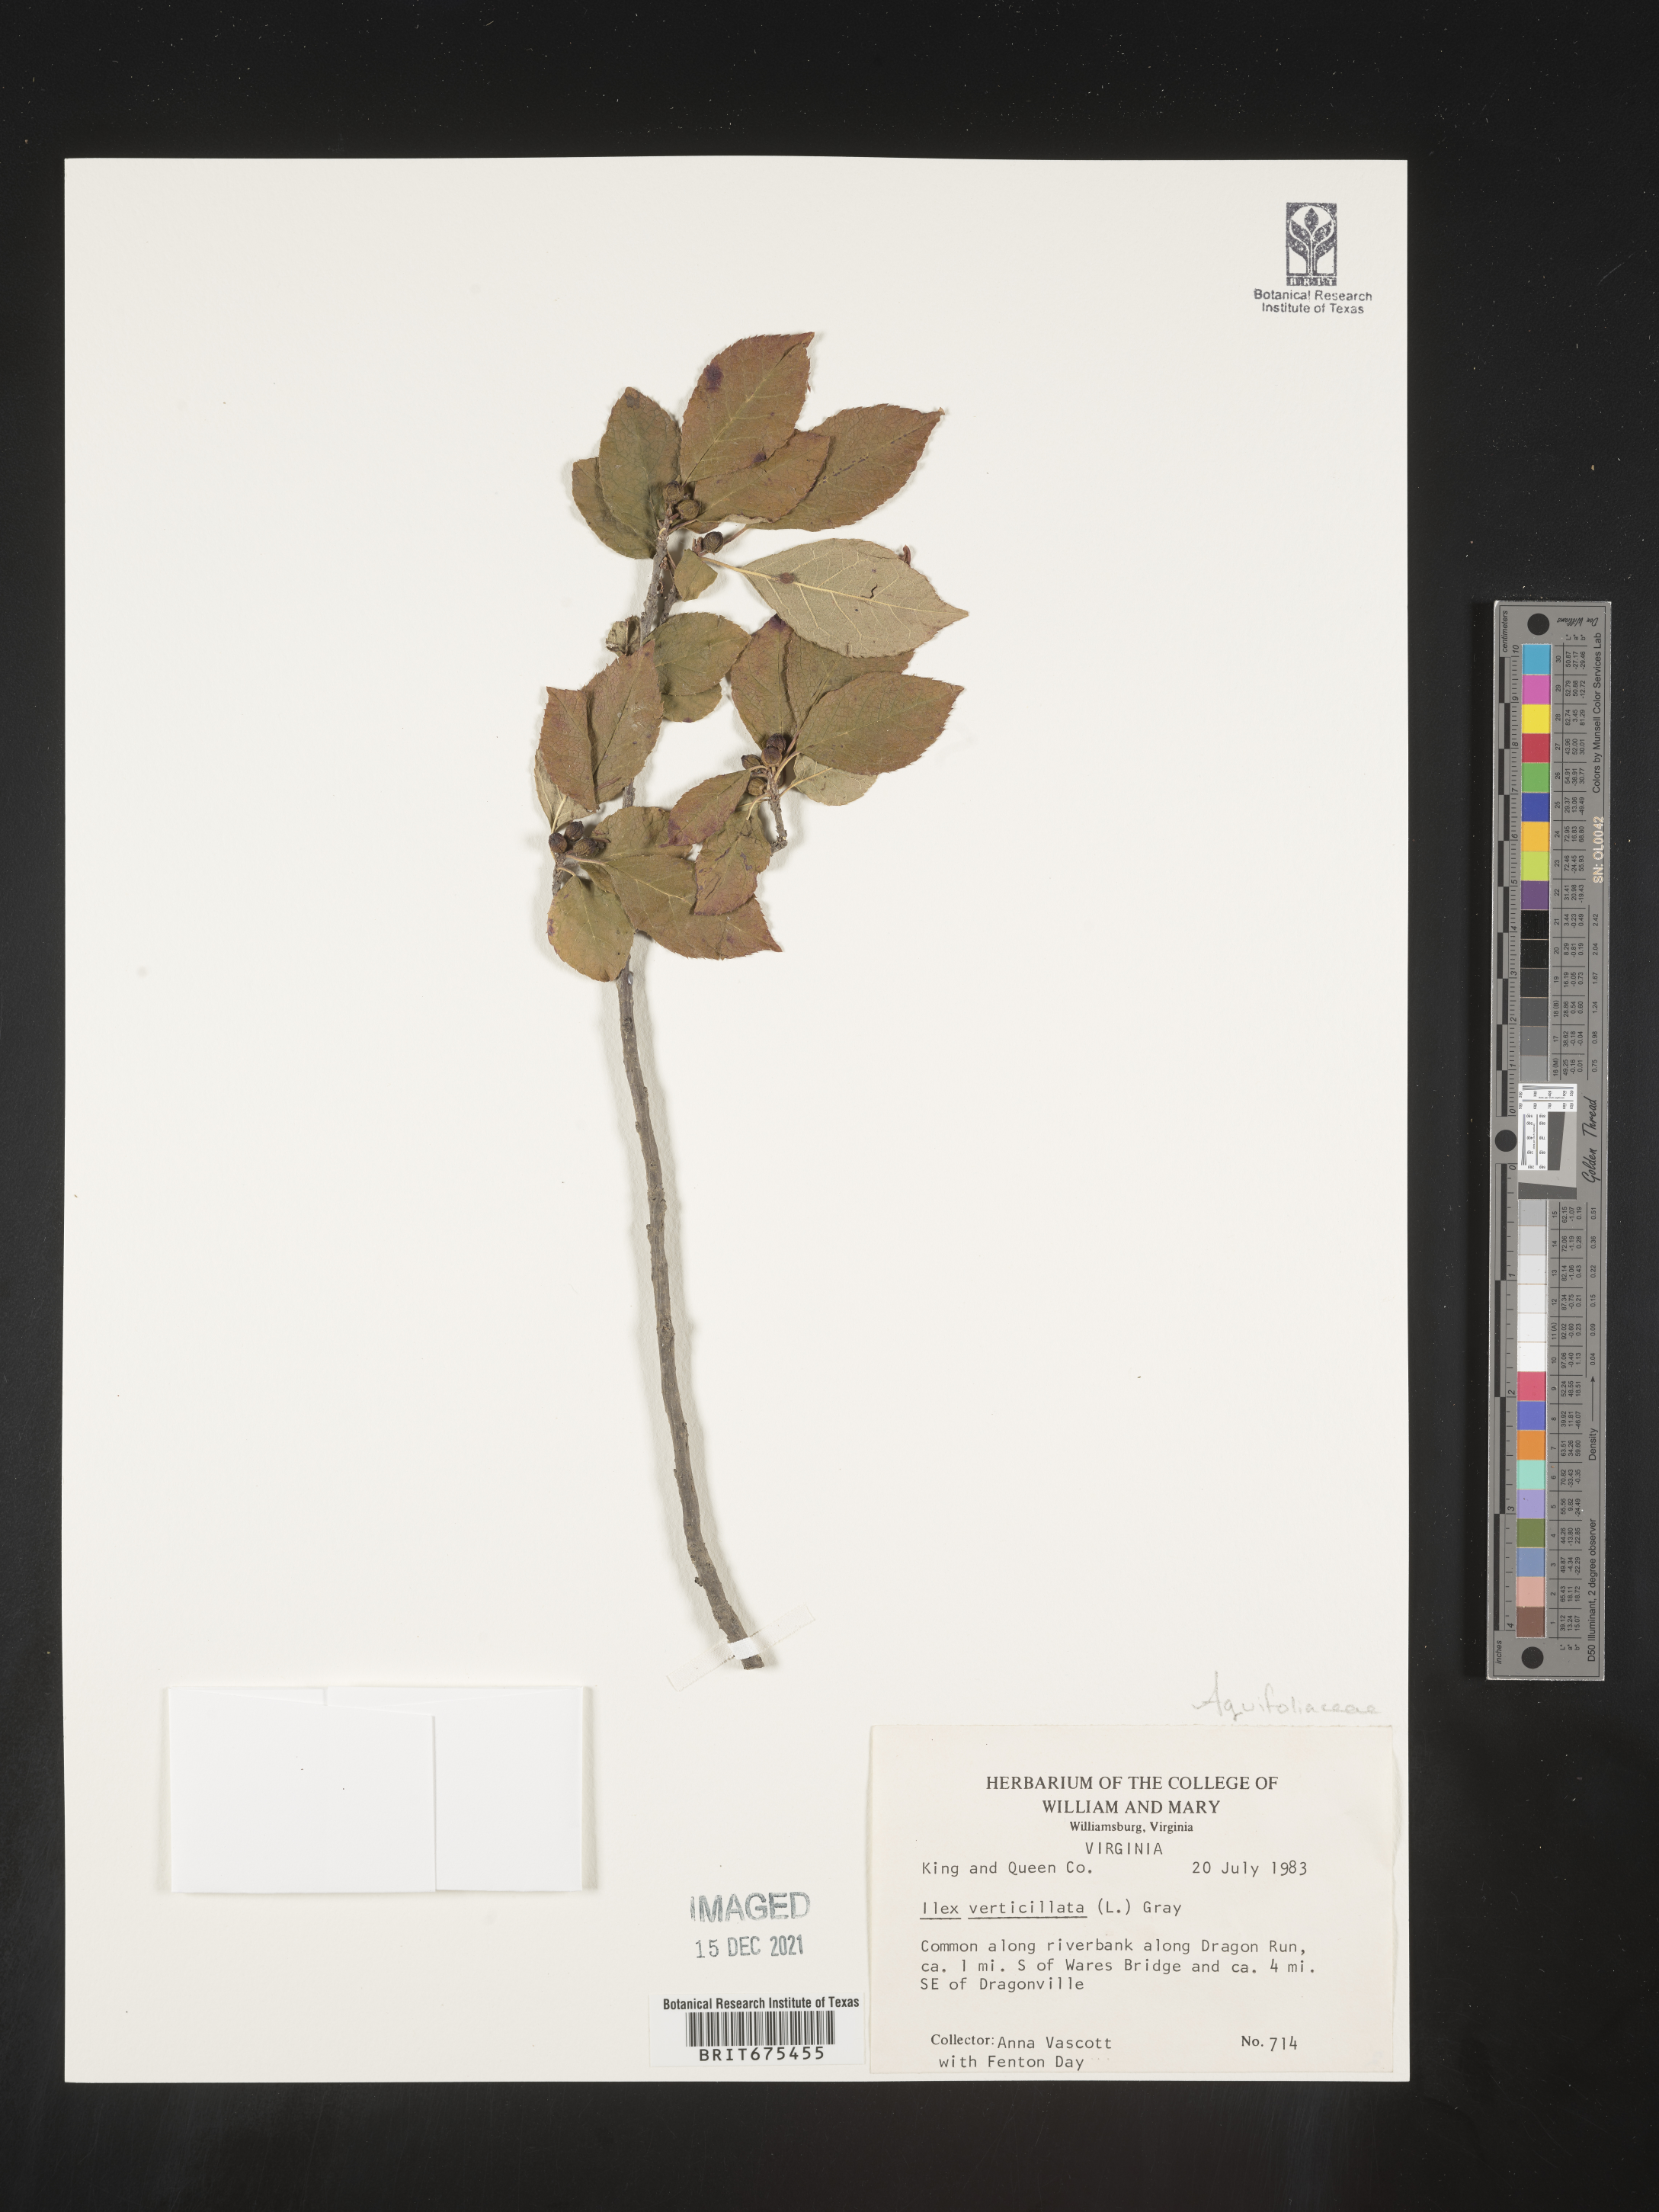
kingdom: Plantae
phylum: Tracheophyta
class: Magnoliopsida
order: Aquifoliales
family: Aquifoliaceae
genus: Ilex
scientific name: Ilex verticillata
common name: Virginia winterberry
